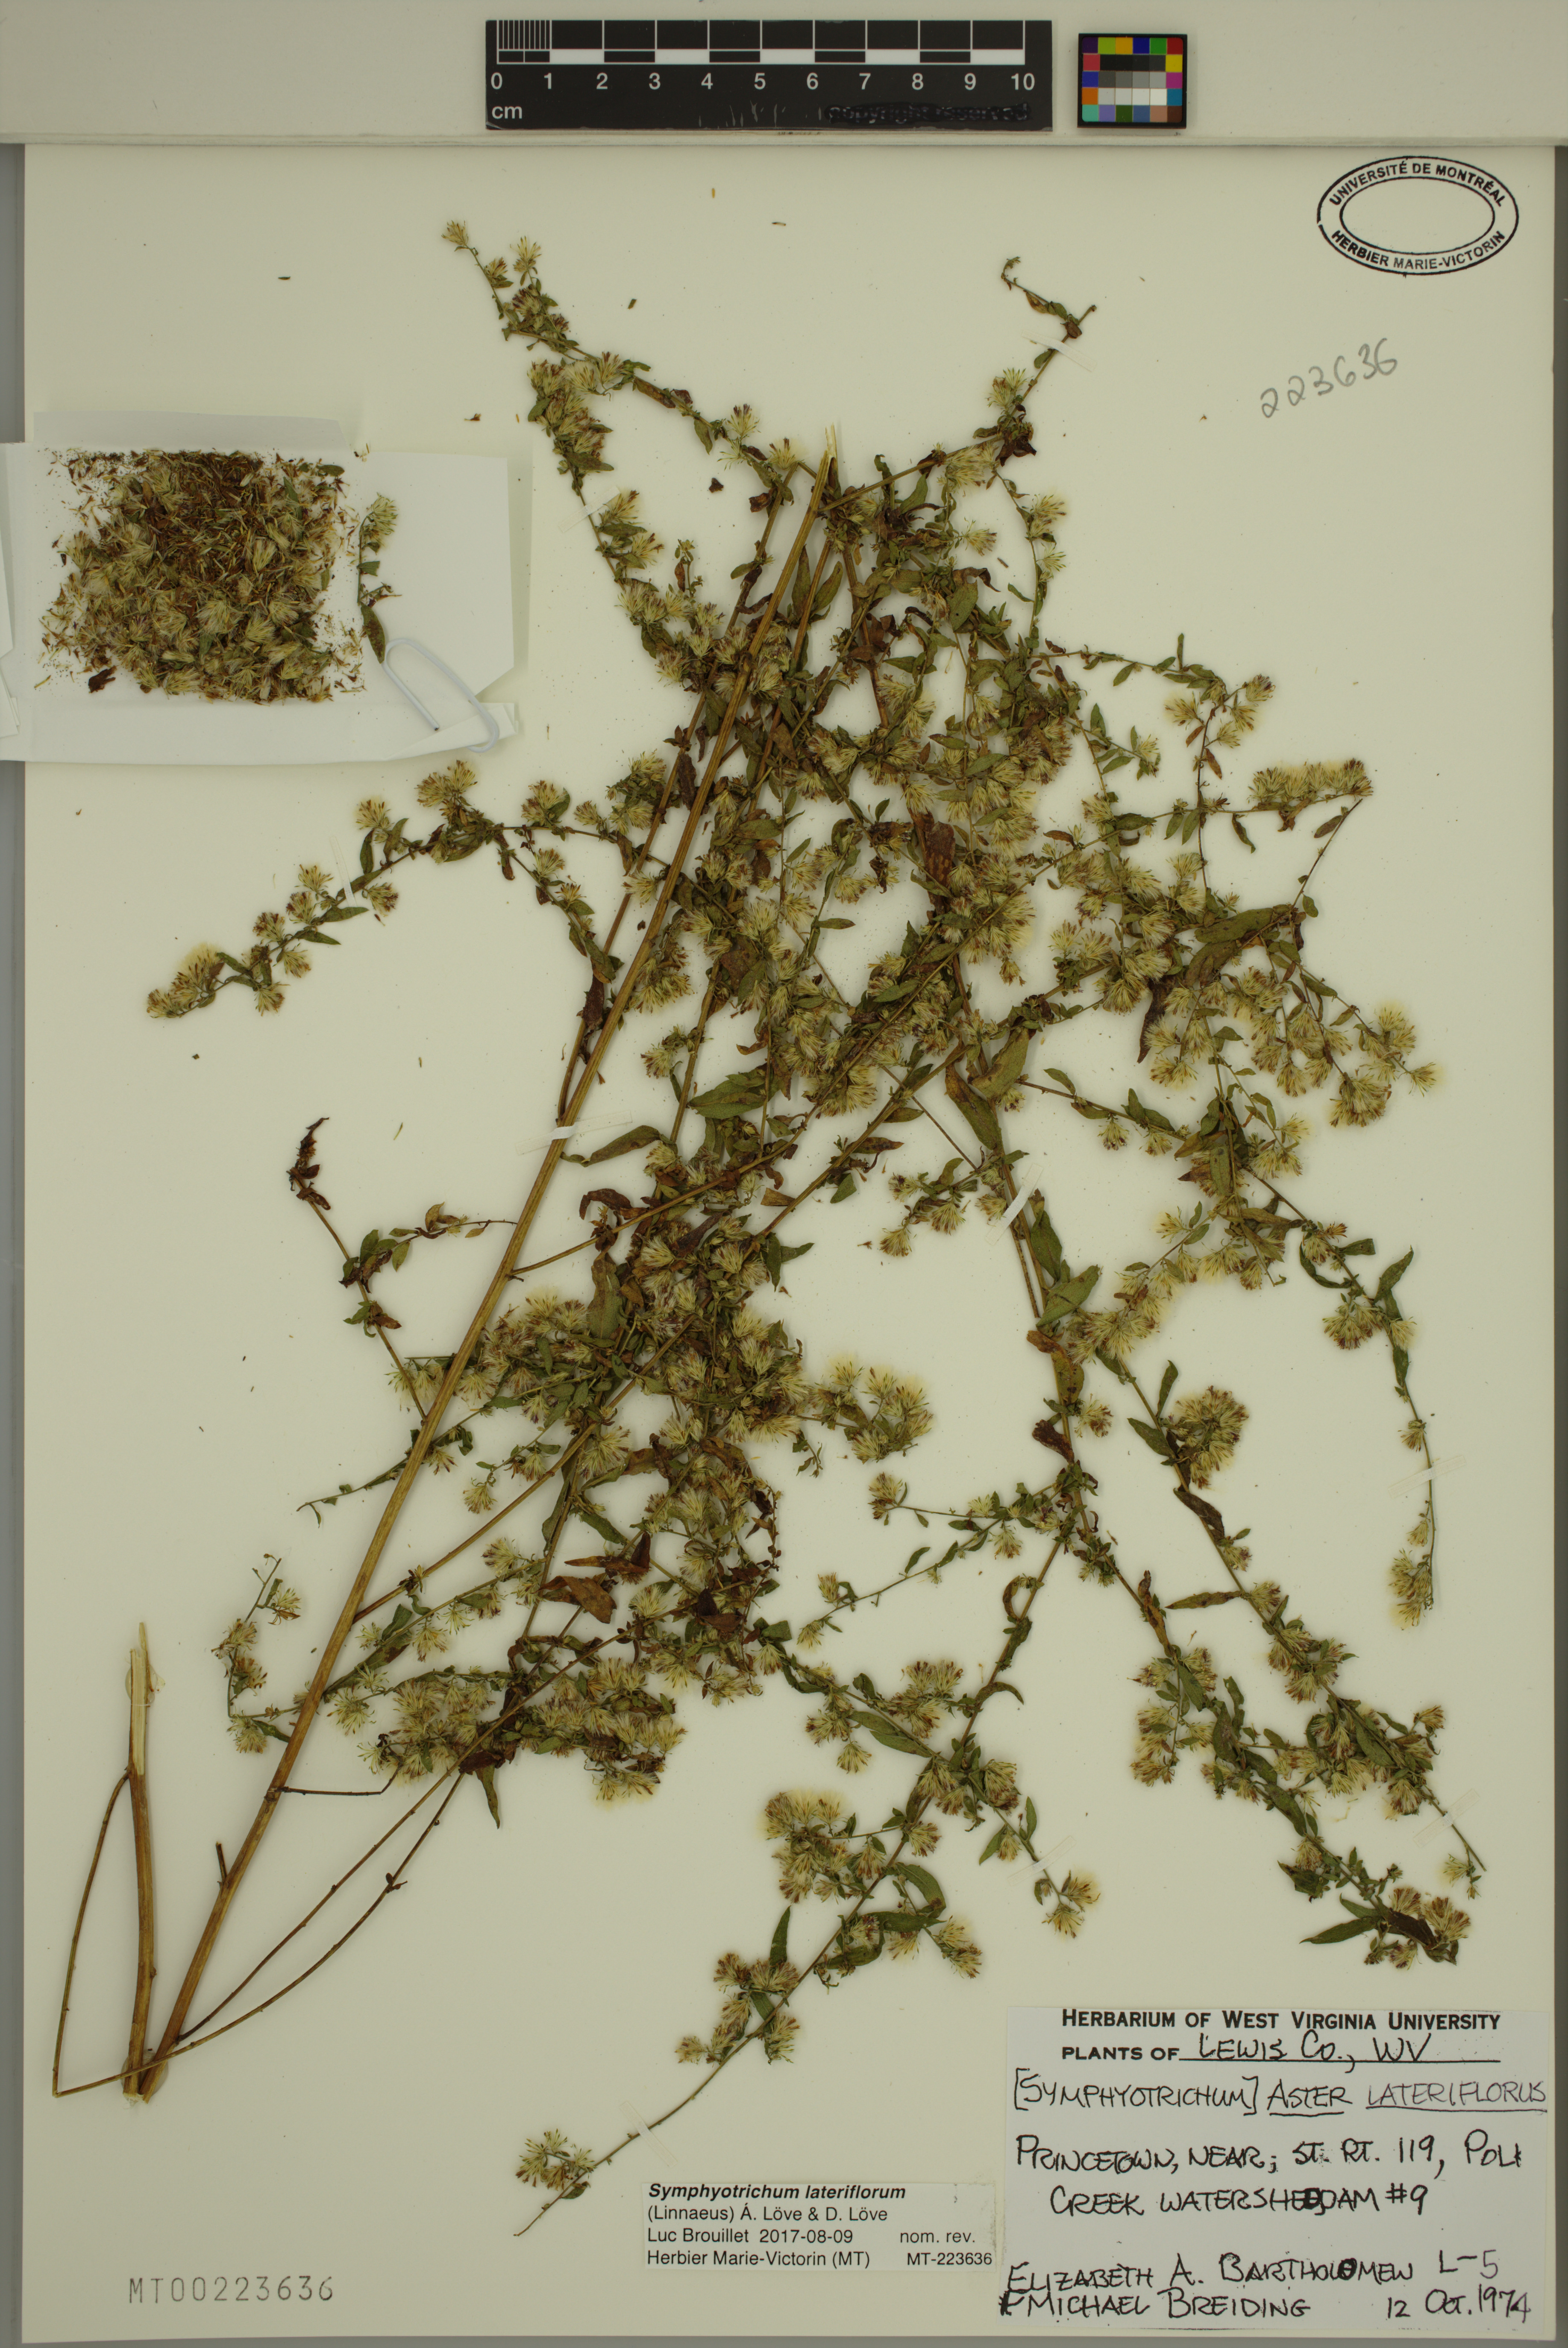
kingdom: Plantae
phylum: Tracheophyta
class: Magnoliopsida
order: Asterales
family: Asteraceae
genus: Symphyotrichum
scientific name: Symphyotrichum lateriflorum
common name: Calico aster
